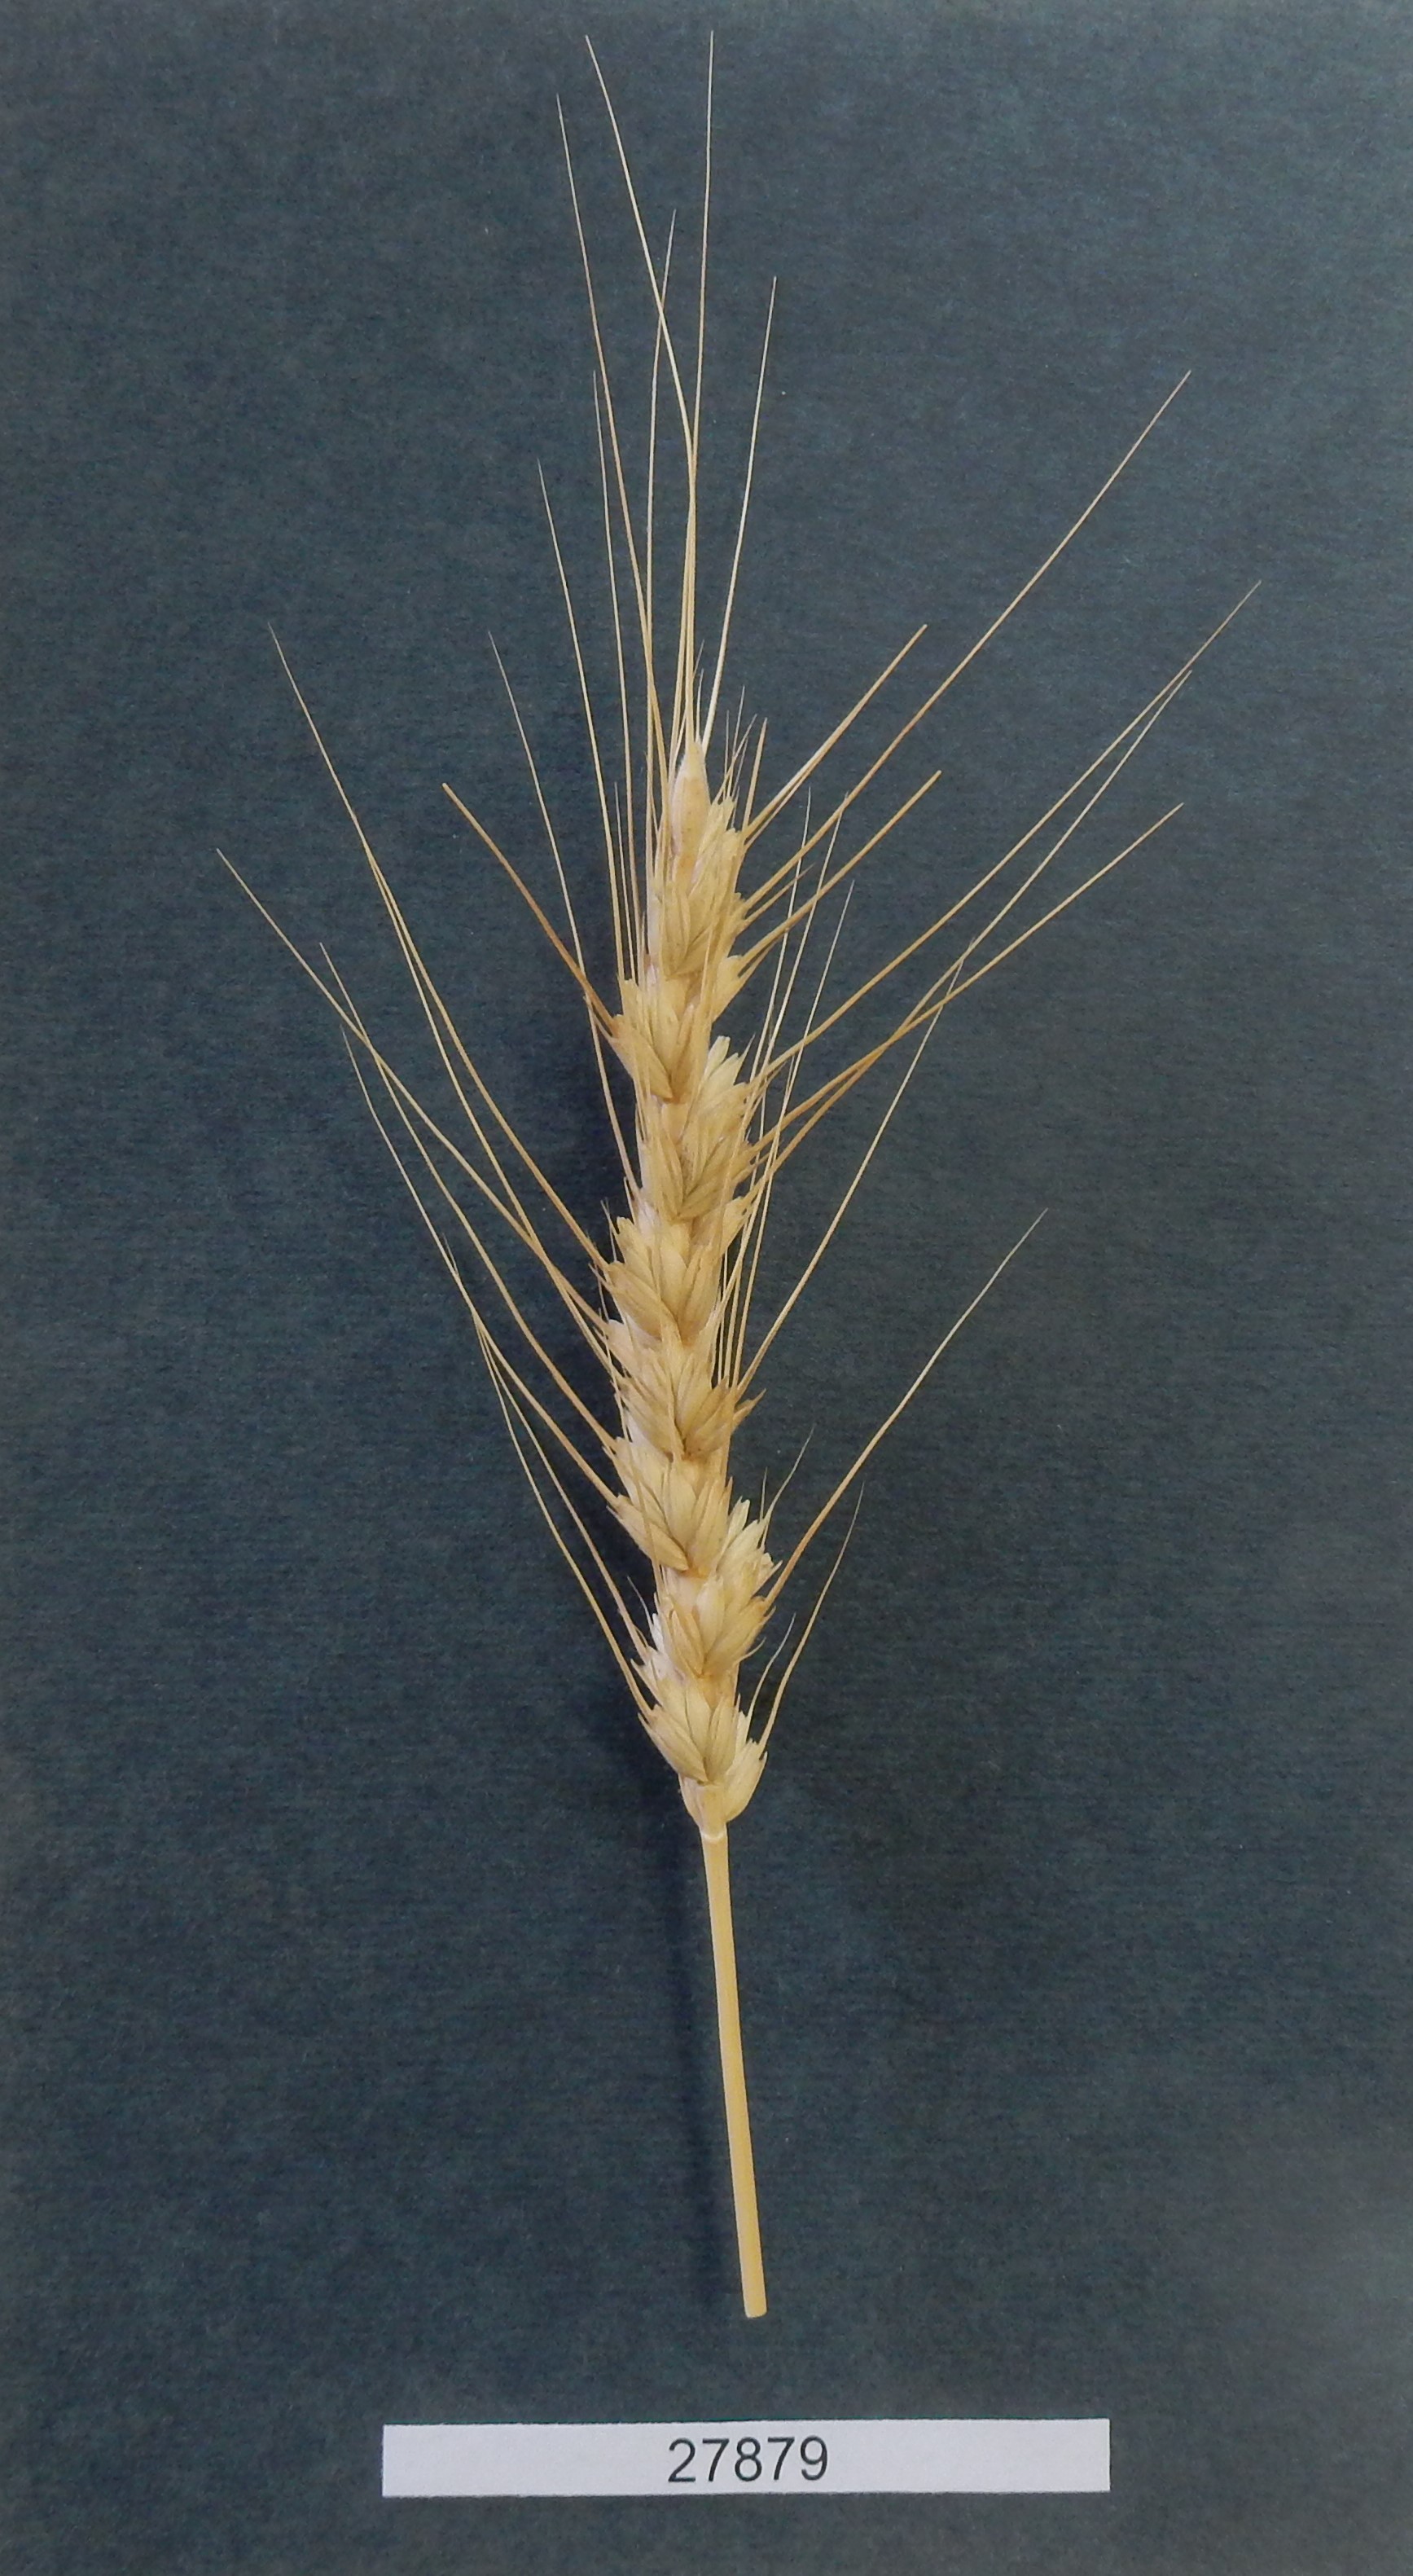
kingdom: Plantae
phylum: Tracheophyta
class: Liliopsida
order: Poales
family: Poaceae
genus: Triticum
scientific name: Triticum aestivum
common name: Common wheat
